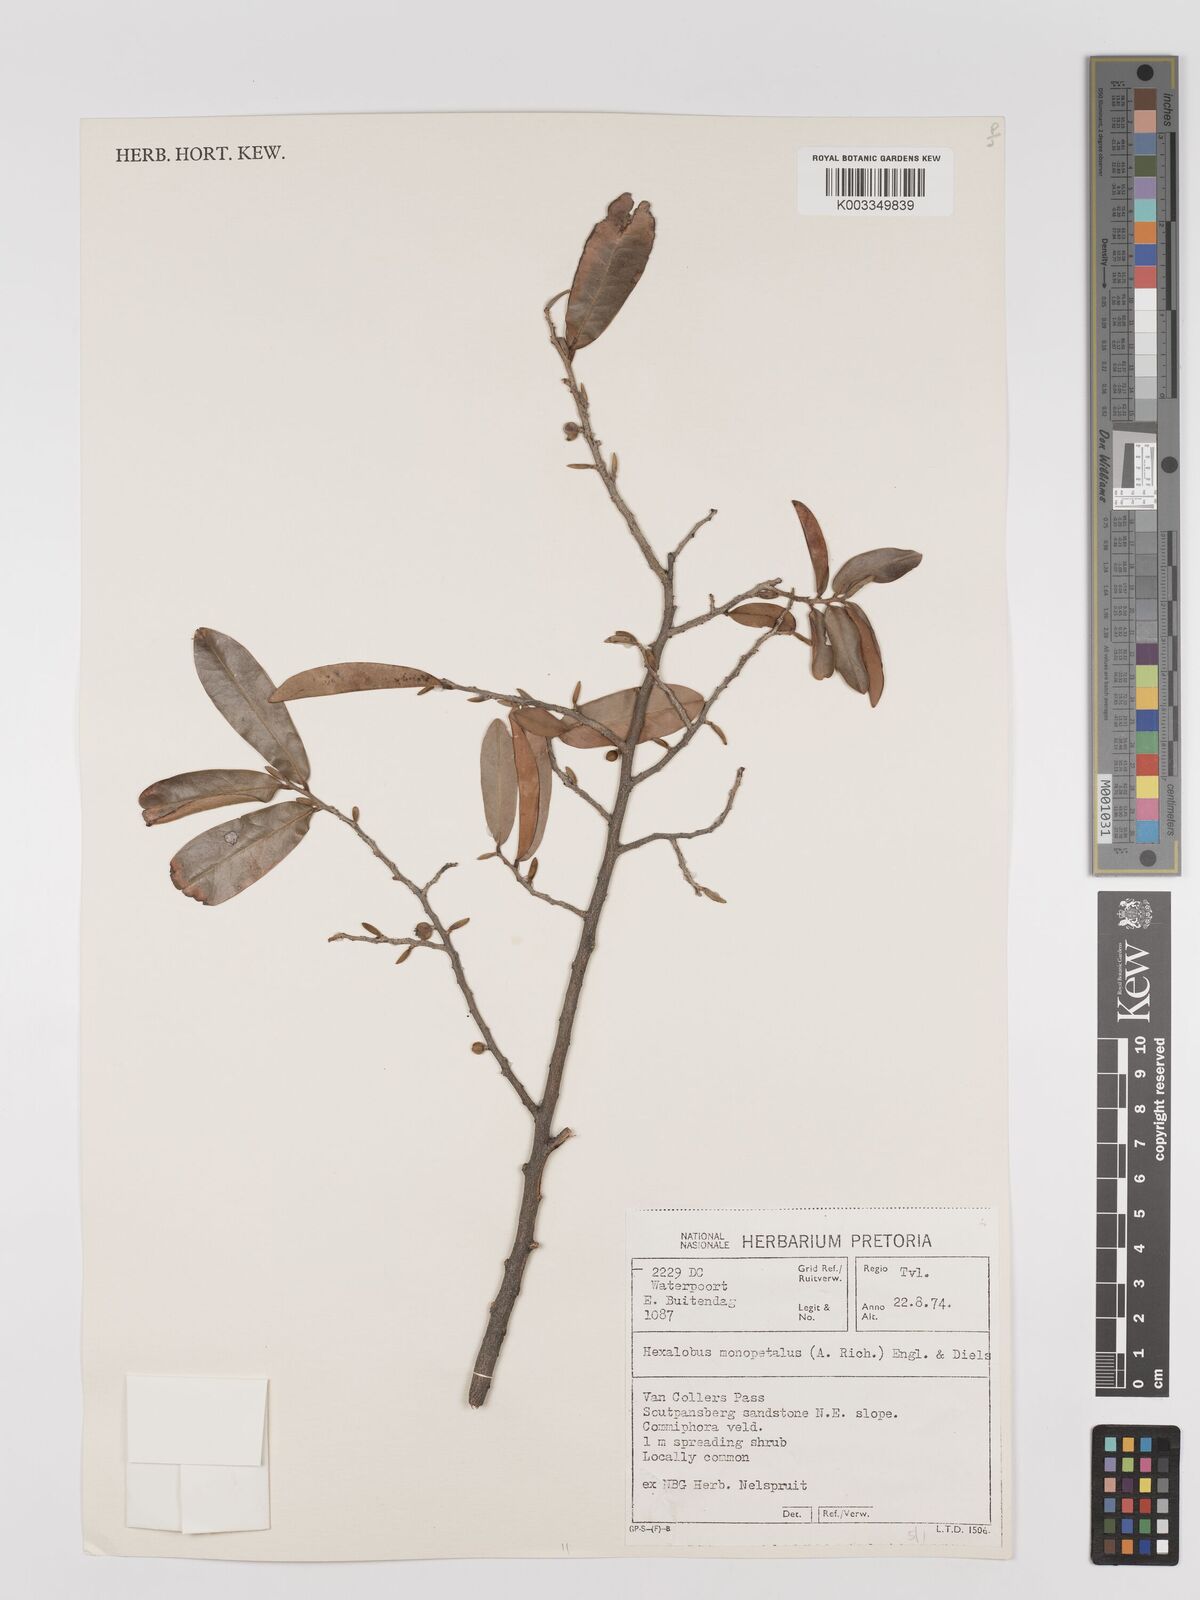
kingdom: Plantae
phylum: Tracheophyta
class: Magnoliopsida
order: Magnoliales
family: Annonaceae
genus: Hexalobus
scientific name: Hexalobus monopetalus
